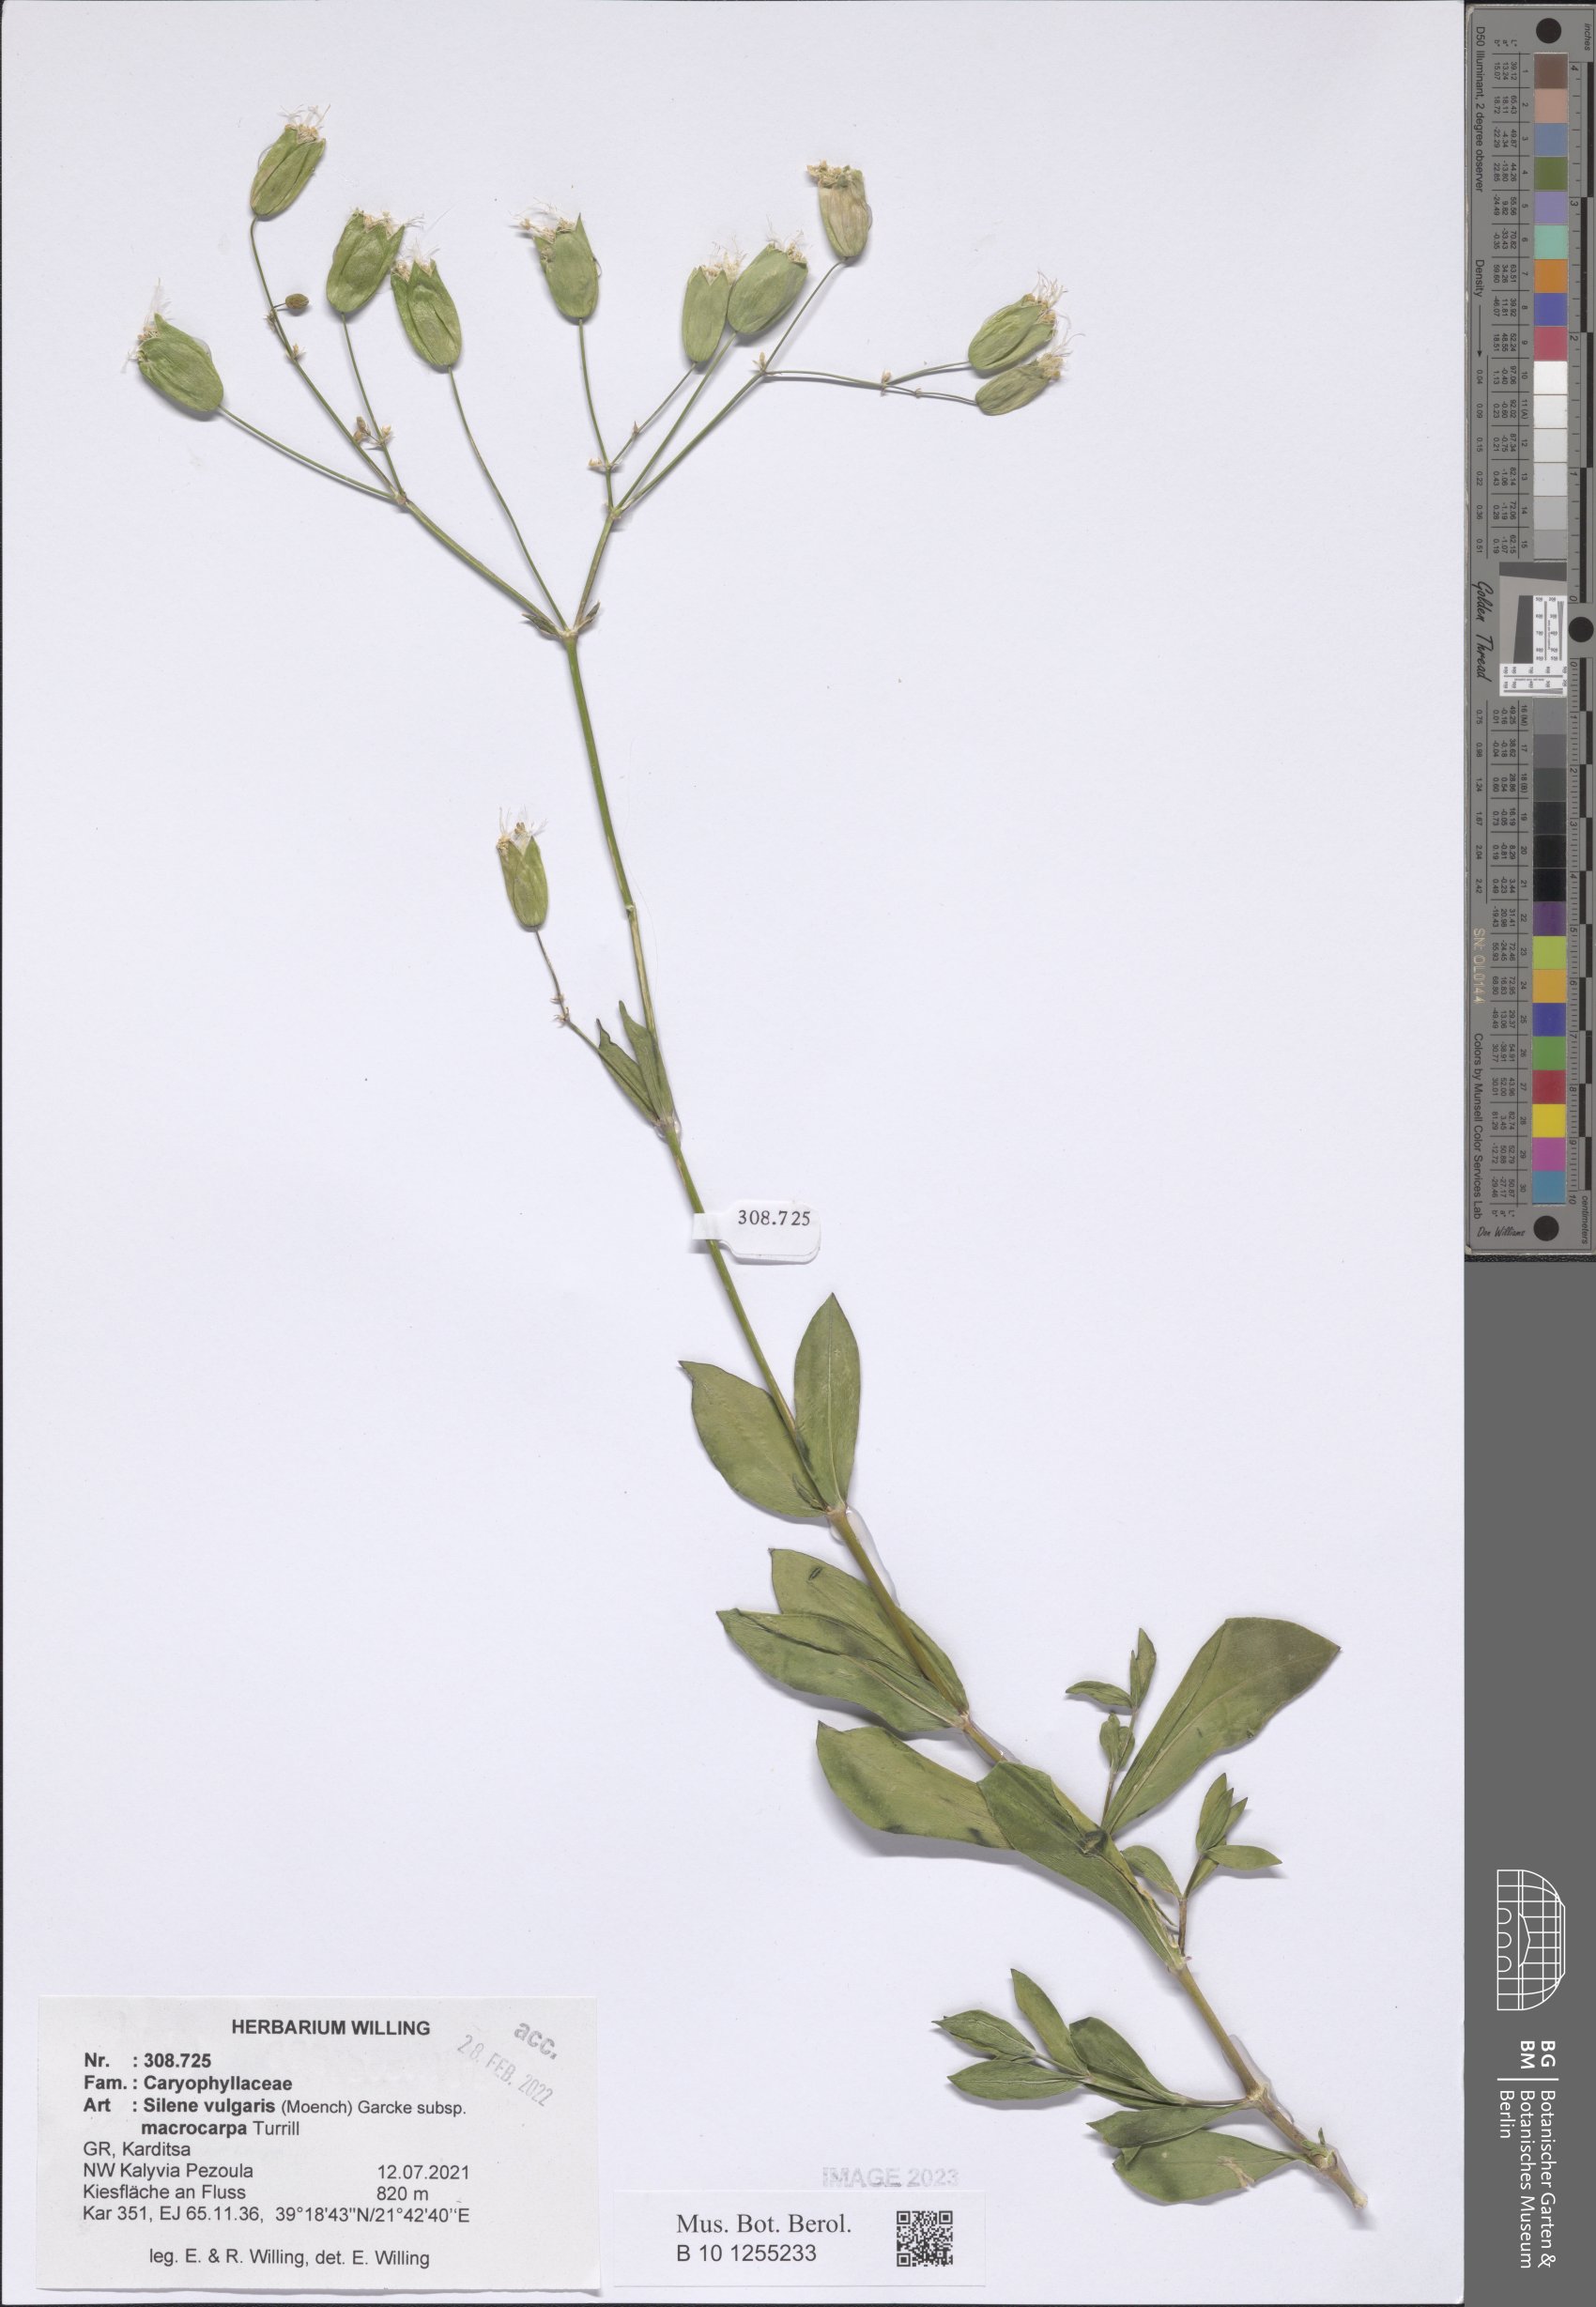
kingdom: Plantae
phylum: Tracheophyta
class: Magnoliopsida
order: Caryophyllales
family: Caryophyllaceae
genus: Silene
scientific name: Silene vulgaris
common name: Bladder campion
